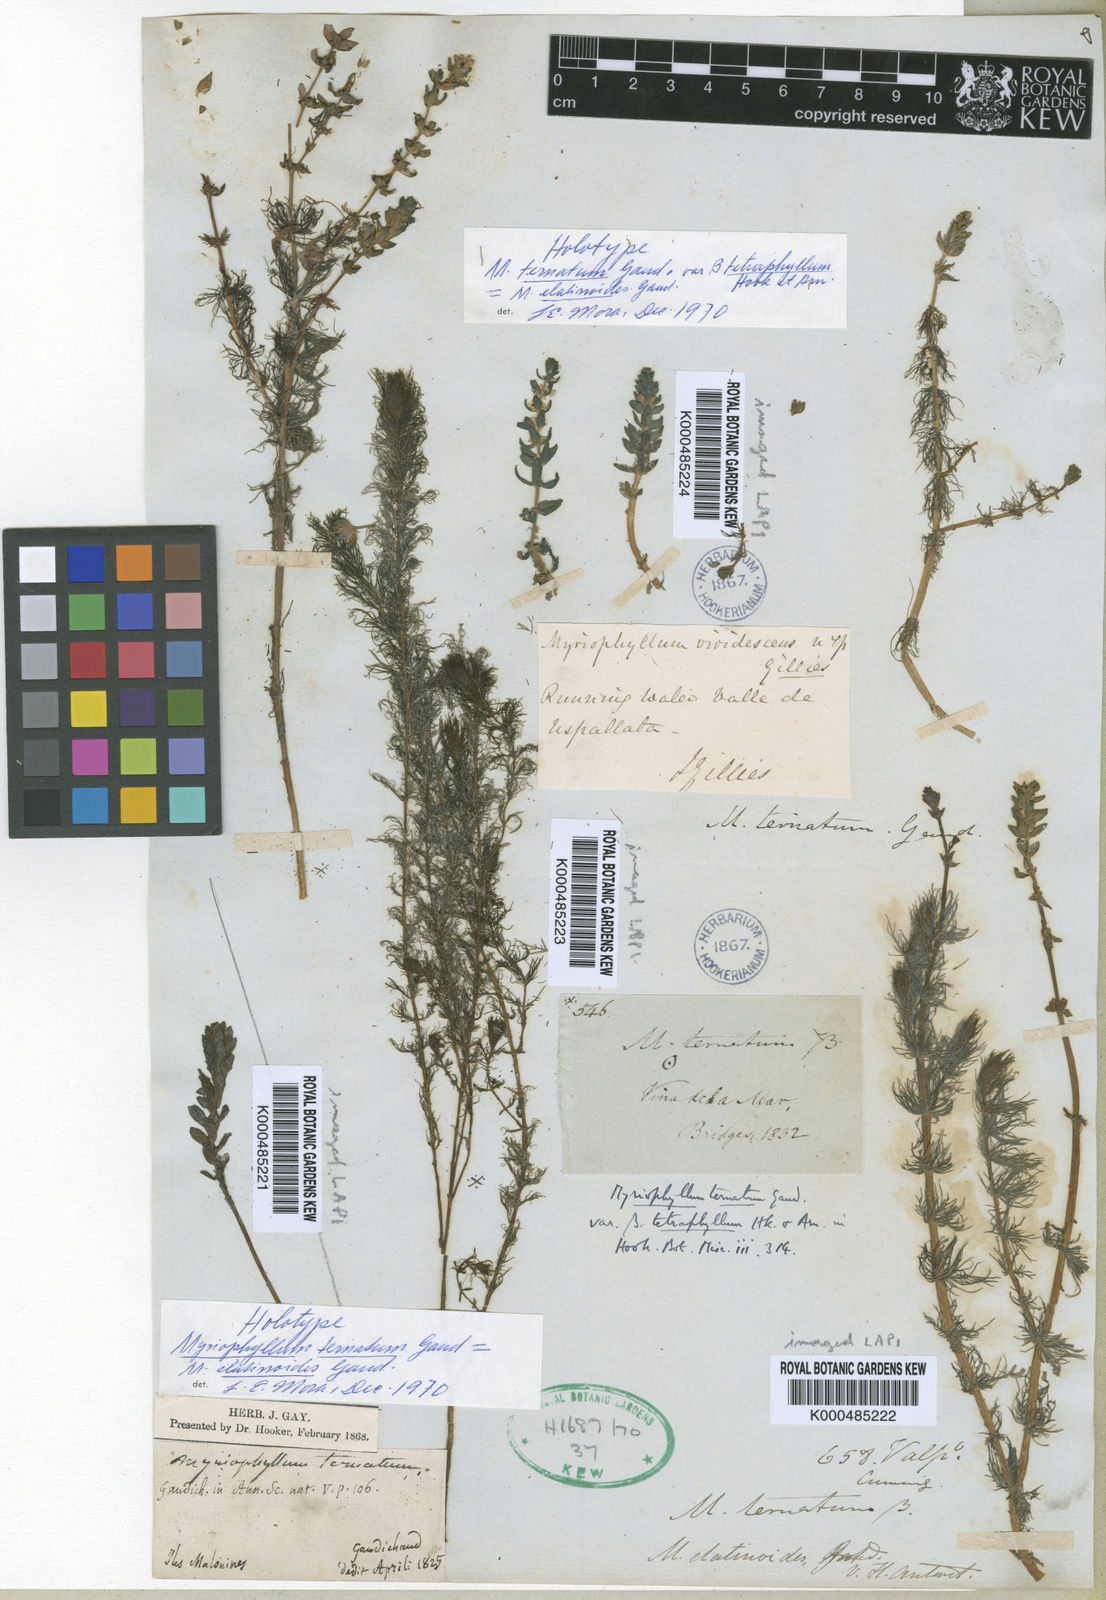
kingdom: Plantae
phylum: Tracheophyta
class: Magnoliopsida
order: Saxifragales
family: Haloragaceae
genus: Myriophyllum
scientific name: Myriophyllum quitense
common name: Andean water milfoil
